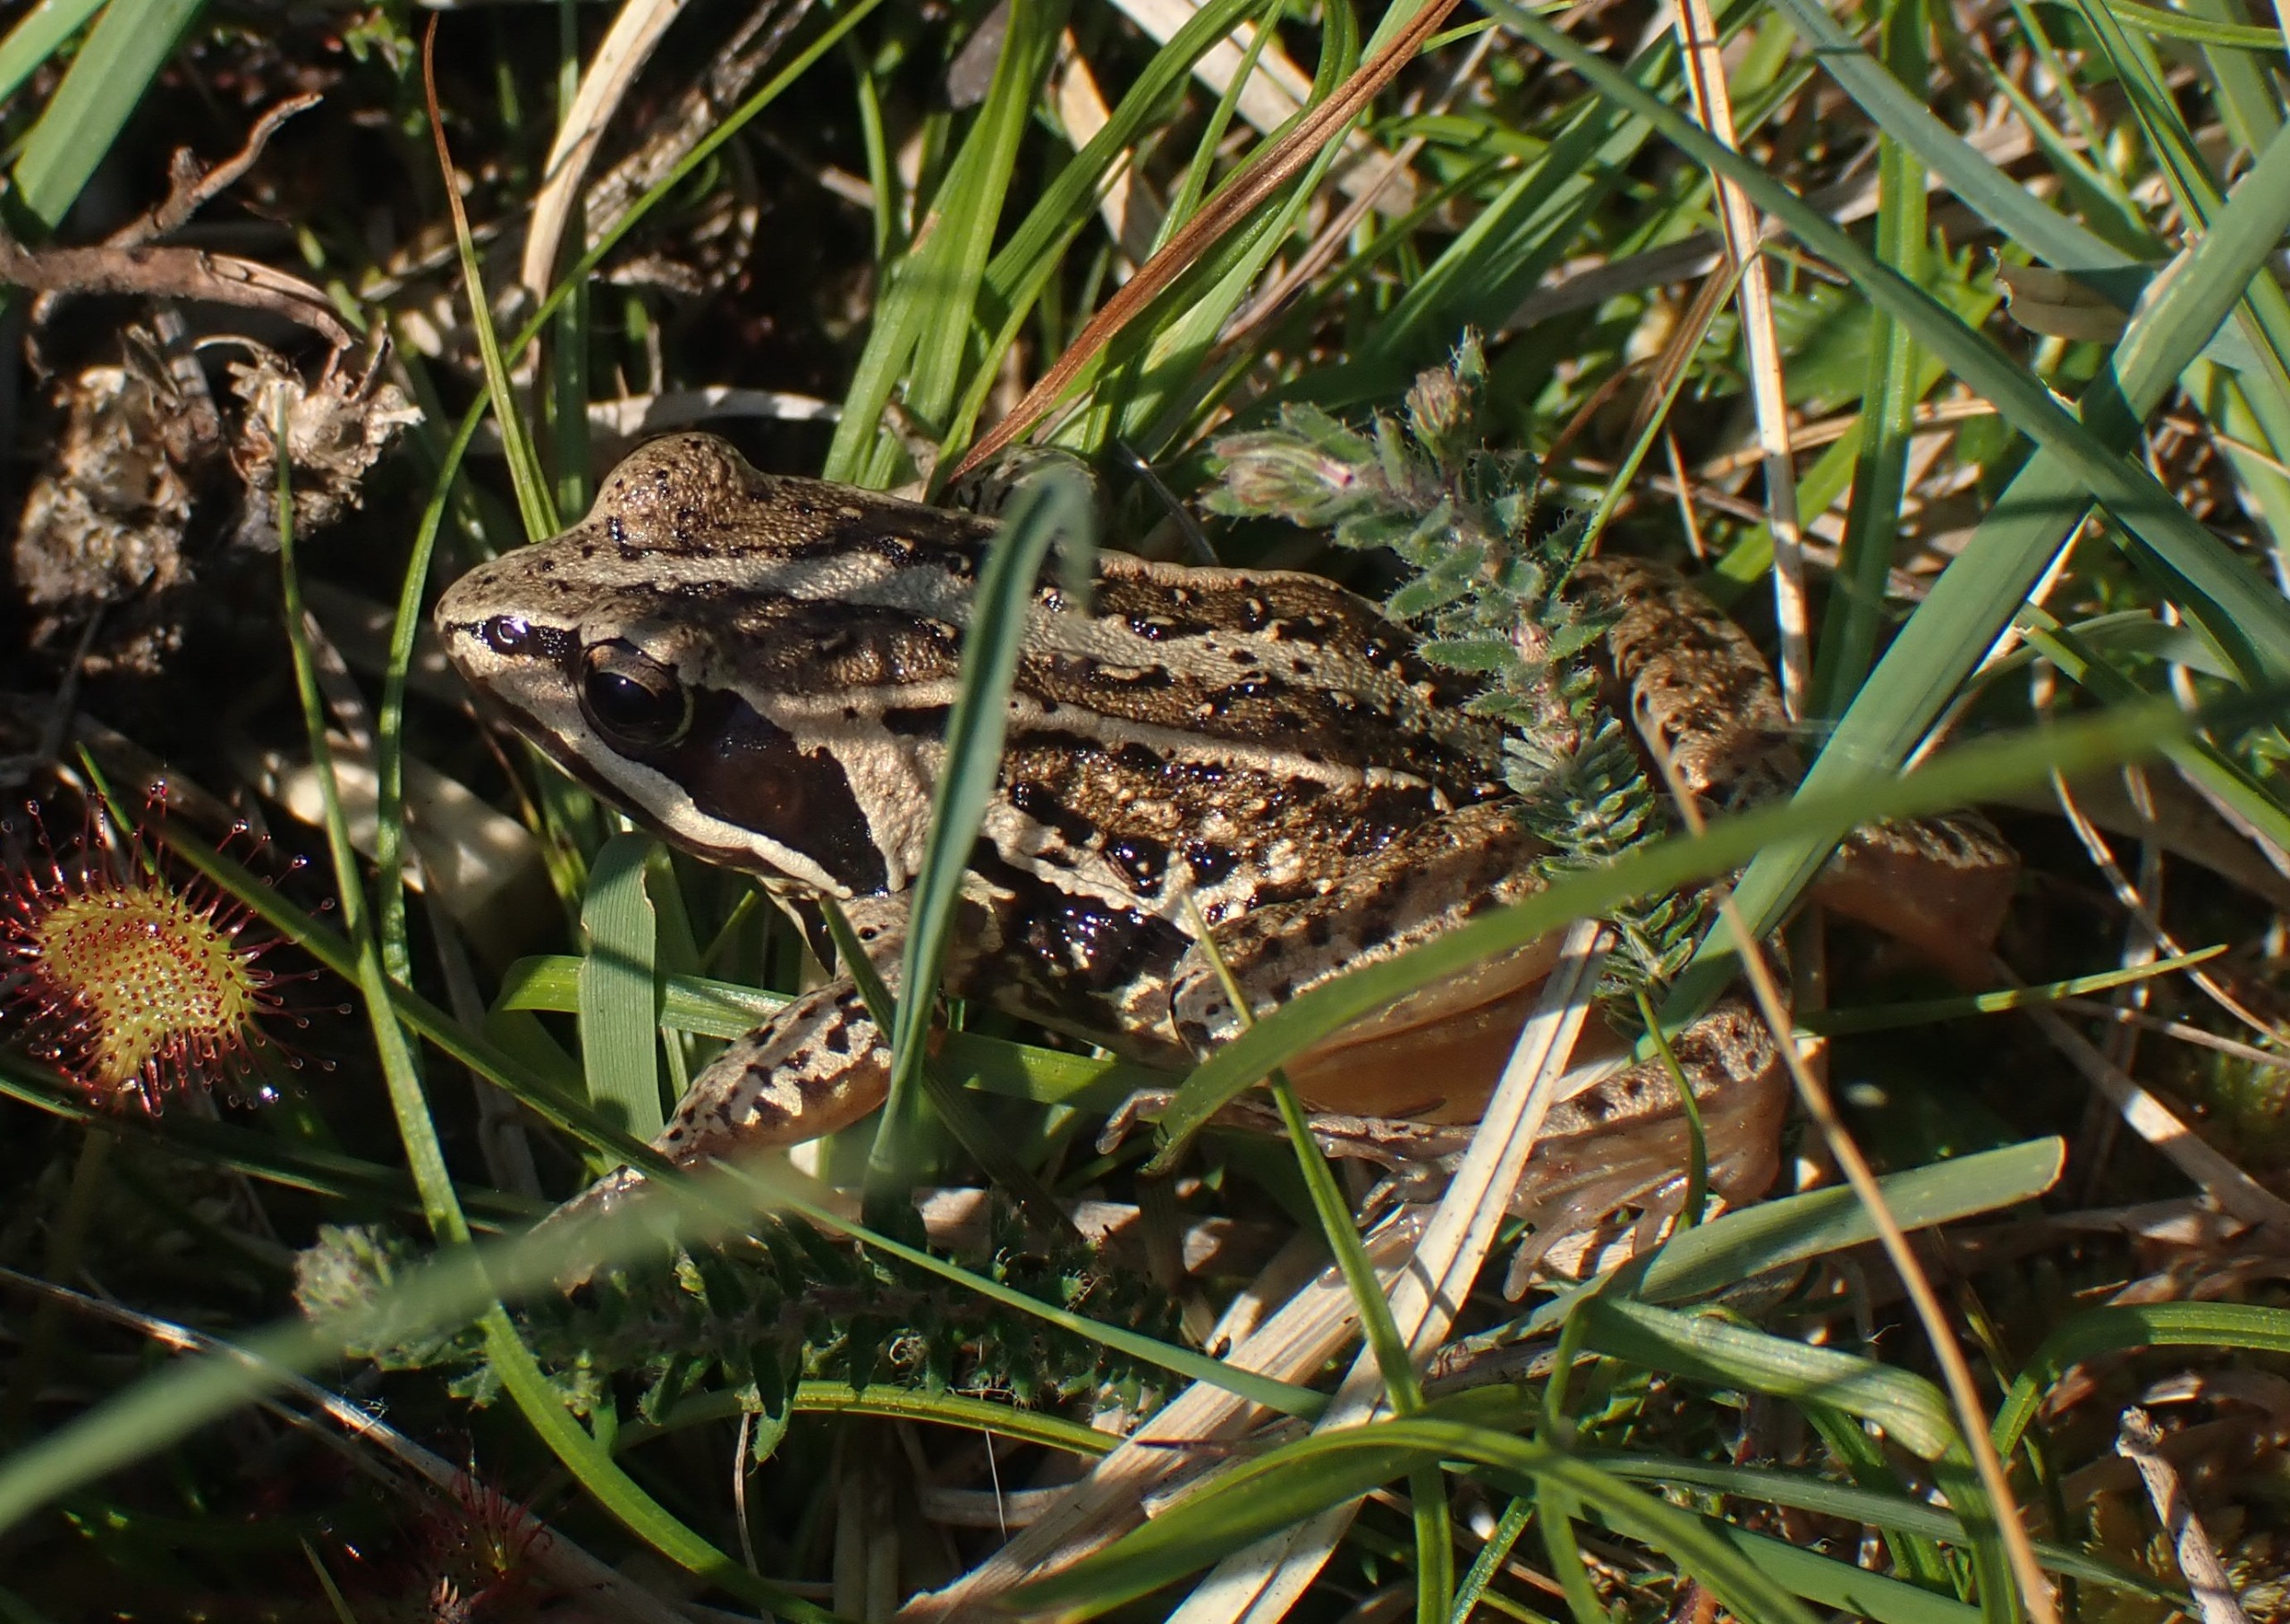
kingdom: Animalia
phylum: Chordata
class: Amphibia
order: Anura
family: Ranidae
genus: Rana
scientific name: Rana arvalis
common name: Spidssnudet frø
